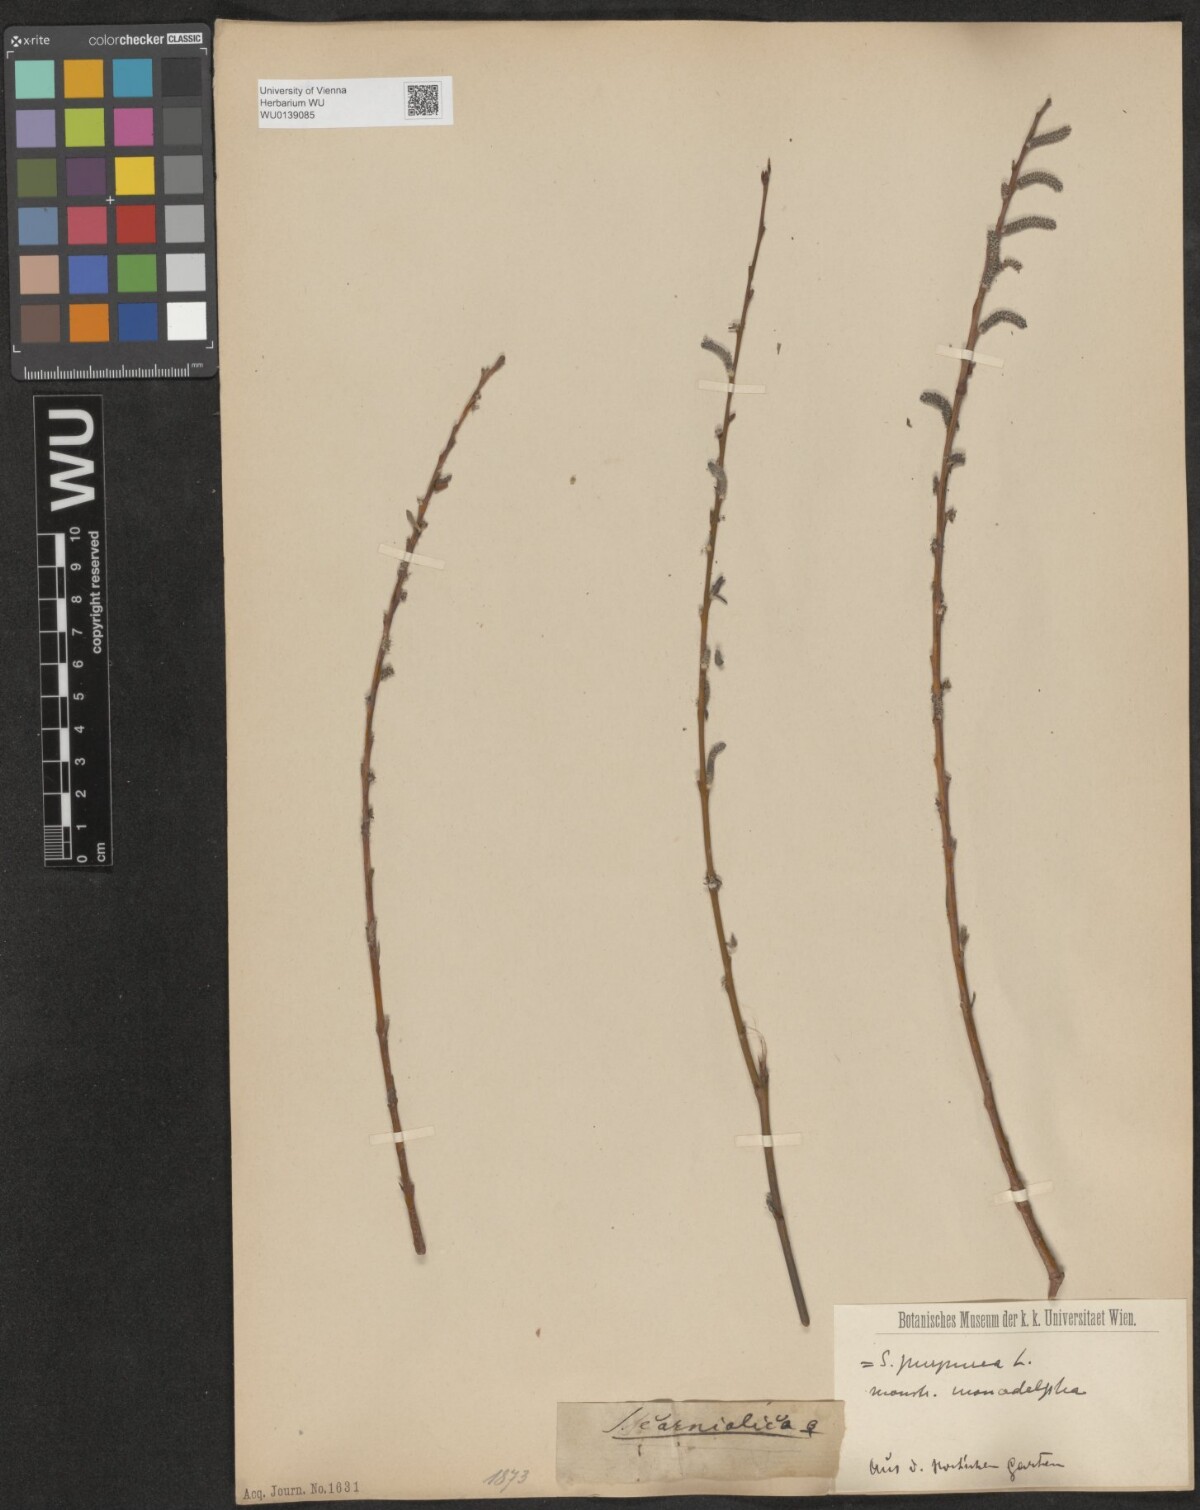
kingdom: Plantae
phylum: Tracheophyta
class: Magnoliopsida
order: Malpighiales
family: Salicaceae
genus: Salix
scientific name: Salix purpurea
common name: Purple willow
